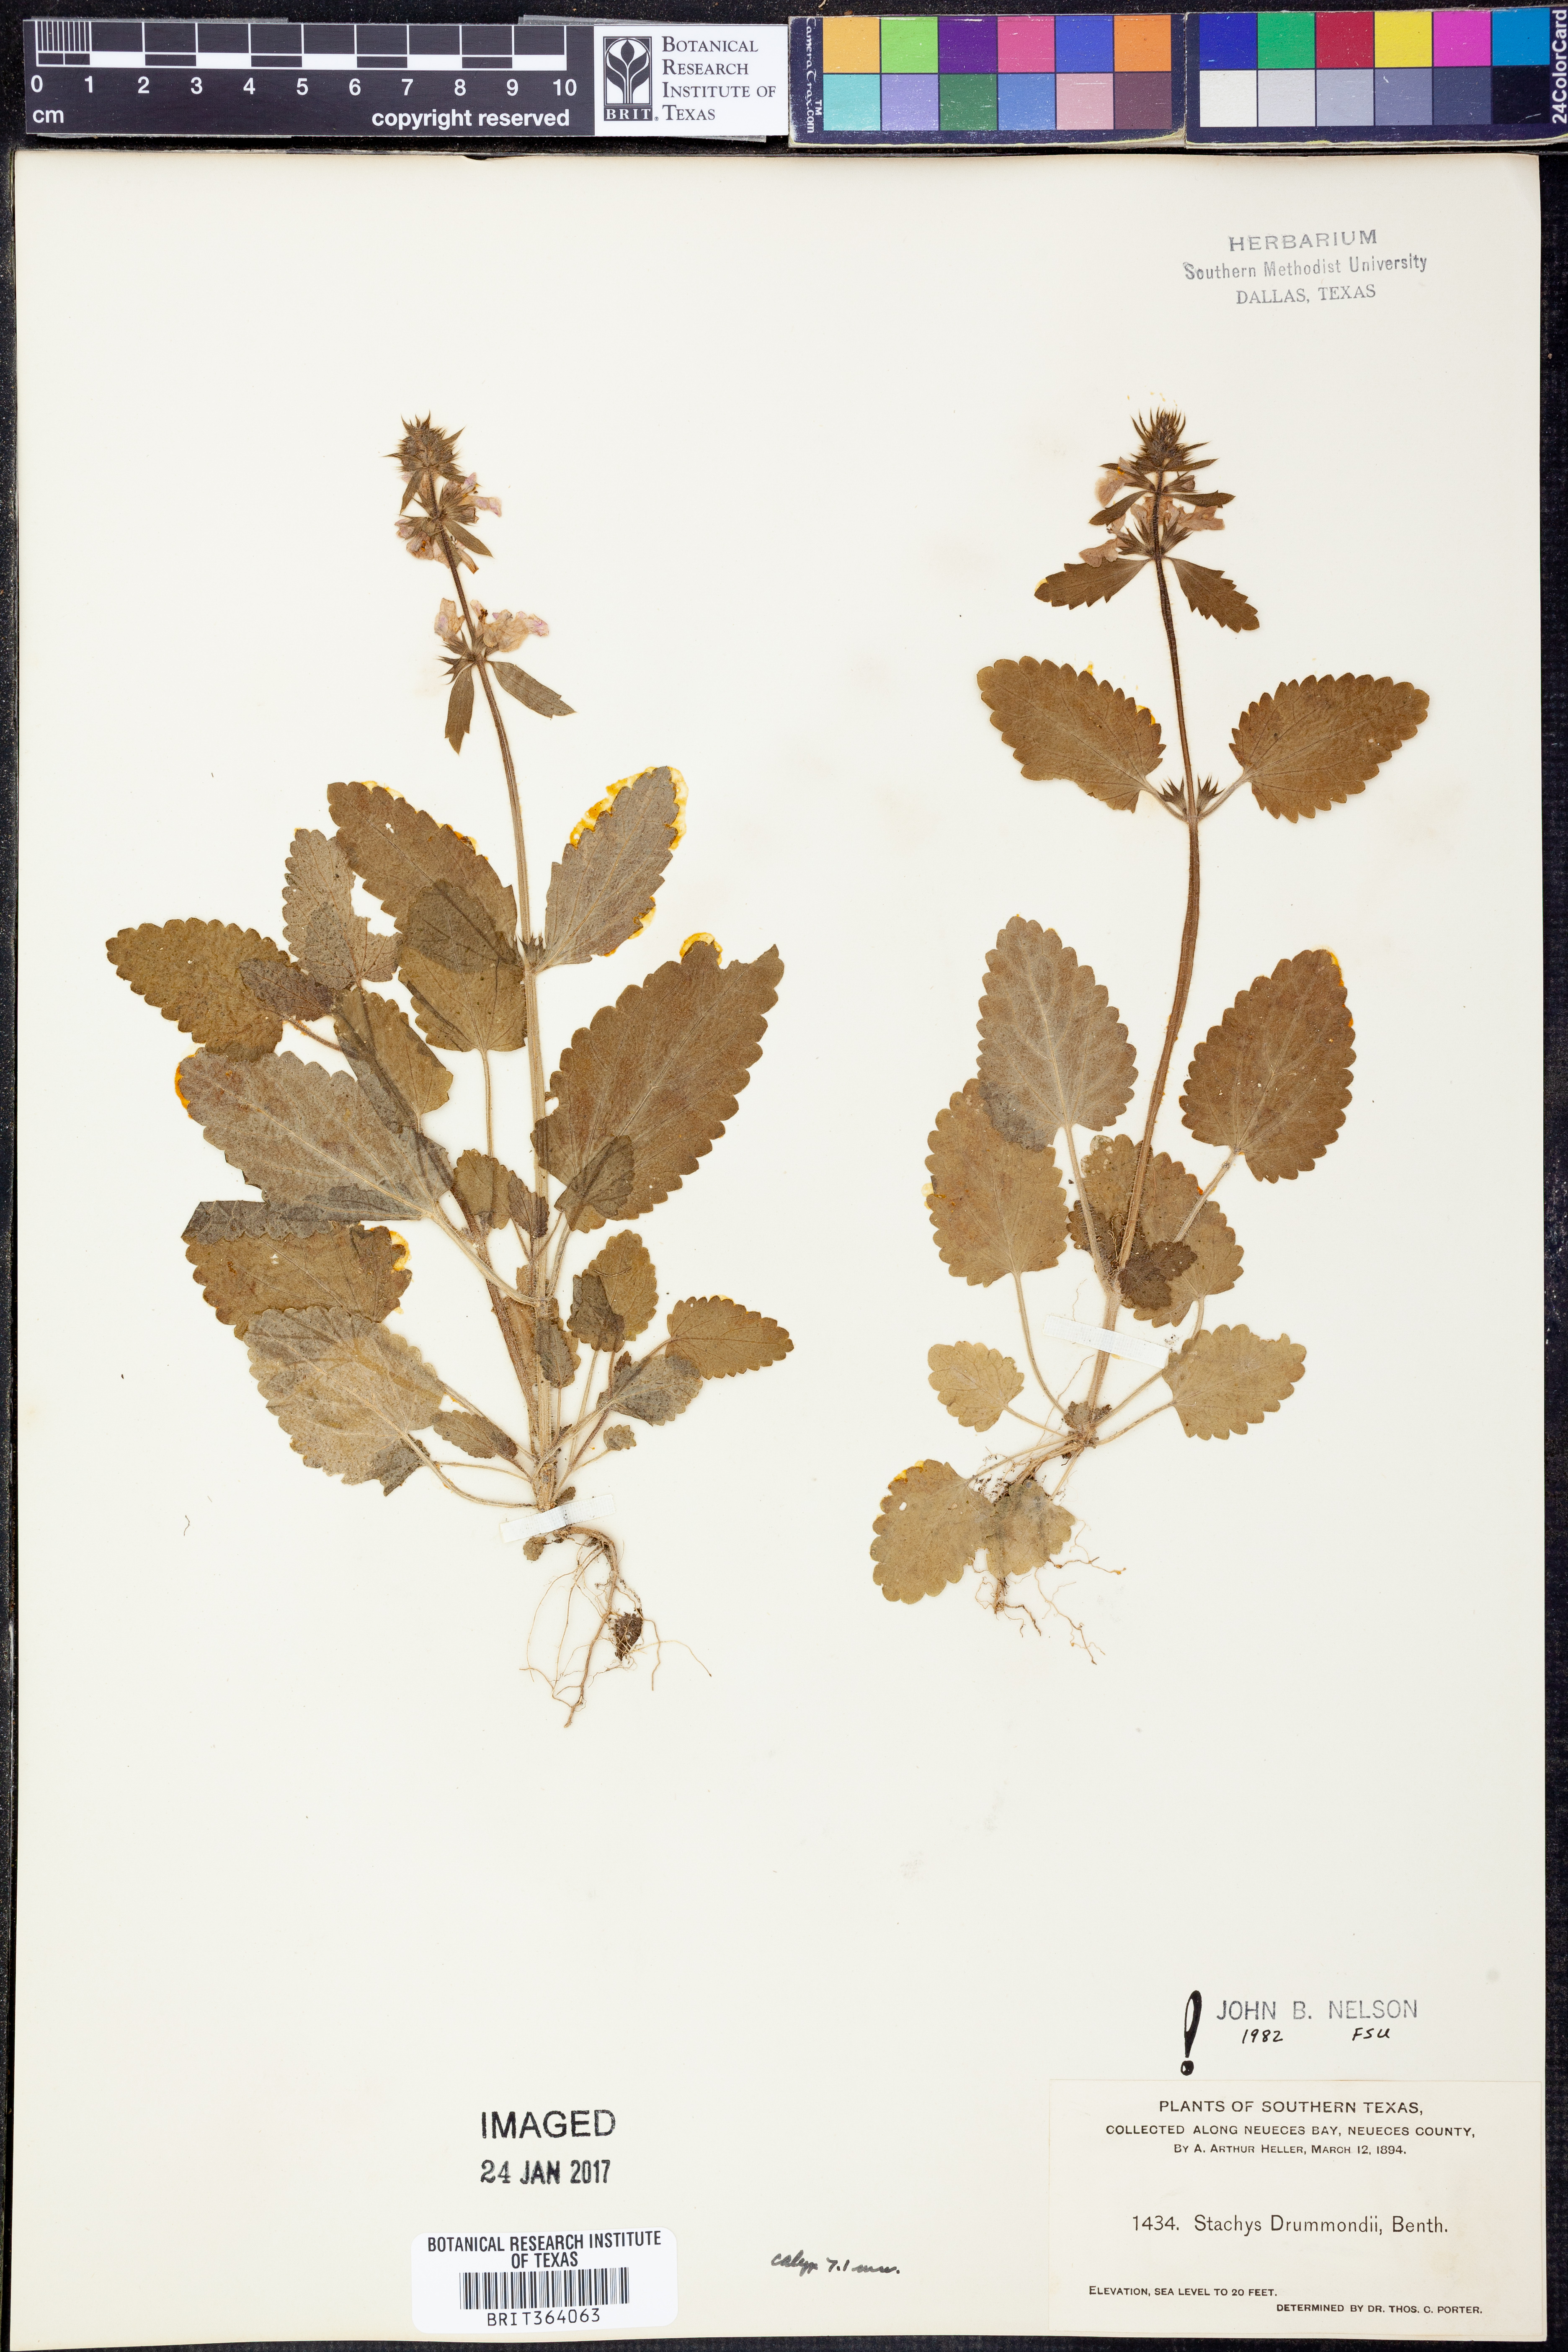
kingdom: Plantae
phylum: Tracheophyta
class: Magnoliopsida
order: Lamiales
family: Lamiaceae
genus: Stachys
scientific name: Stachys drummondii
